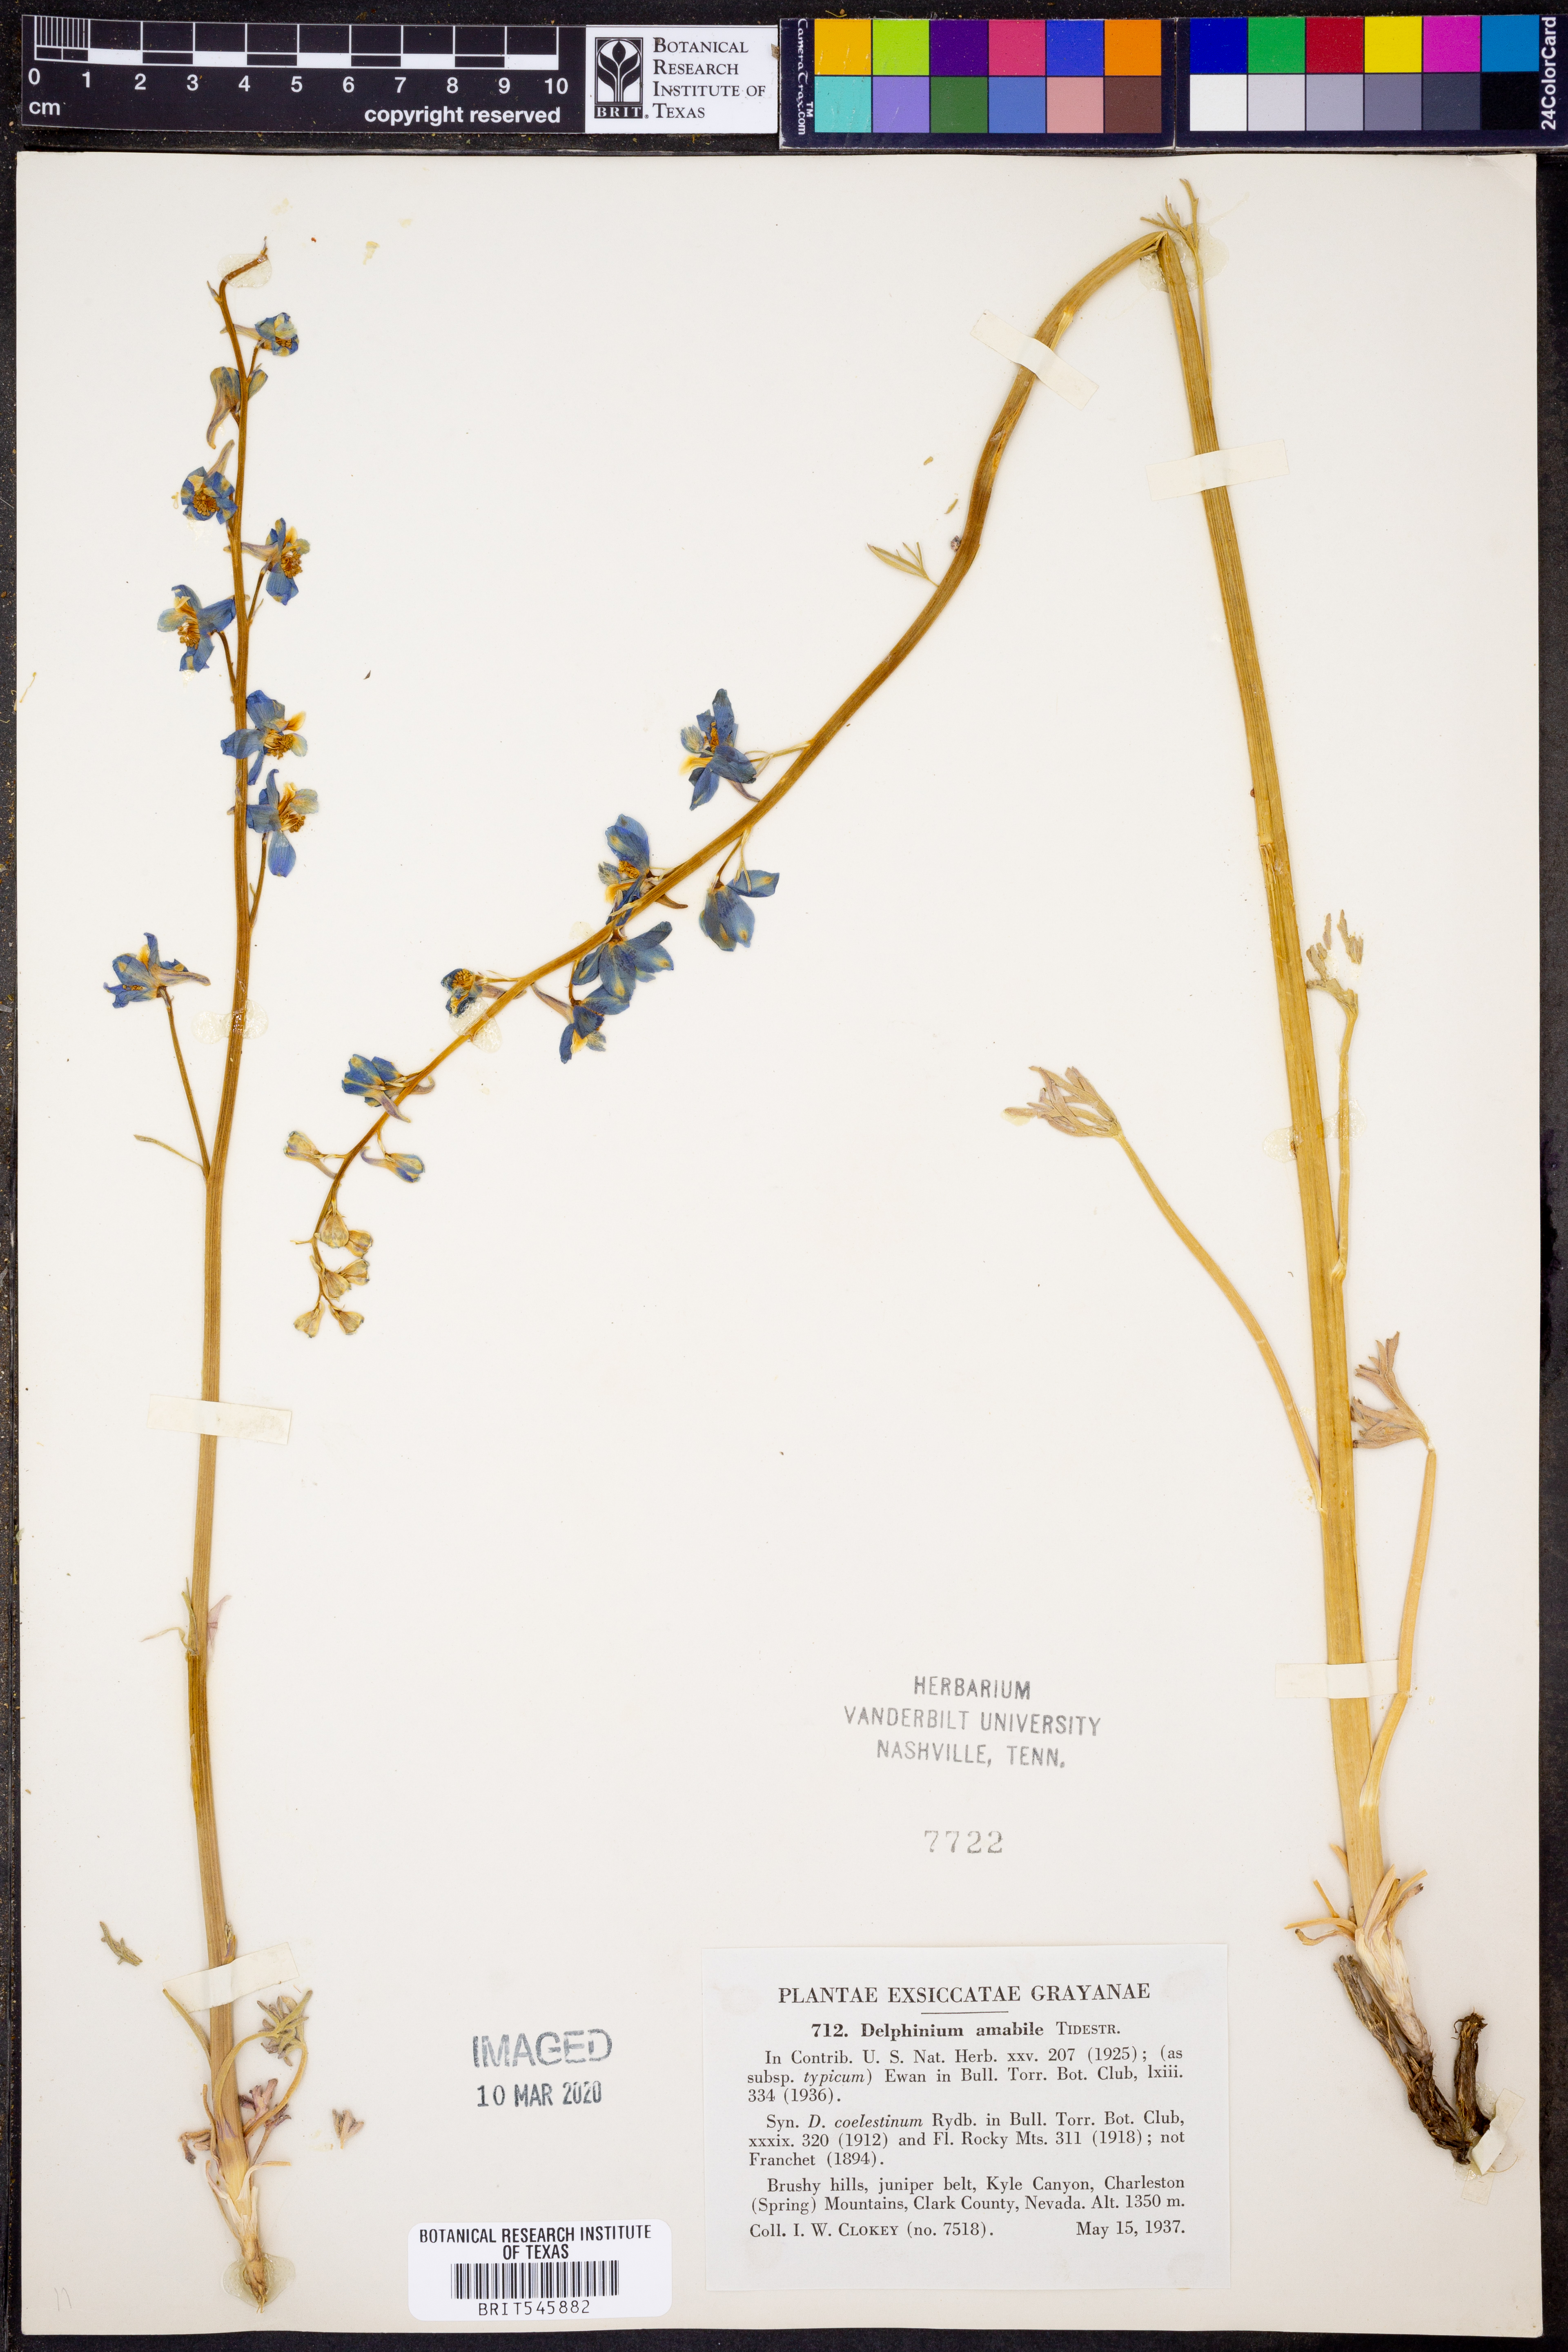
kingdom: Plantae
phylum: Tracheophyta
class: Magnoliopsida
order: Ranunculales
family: Ranunculaceae
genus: Delphinium
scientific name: Delphinium parishii
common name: Apache larkspur
